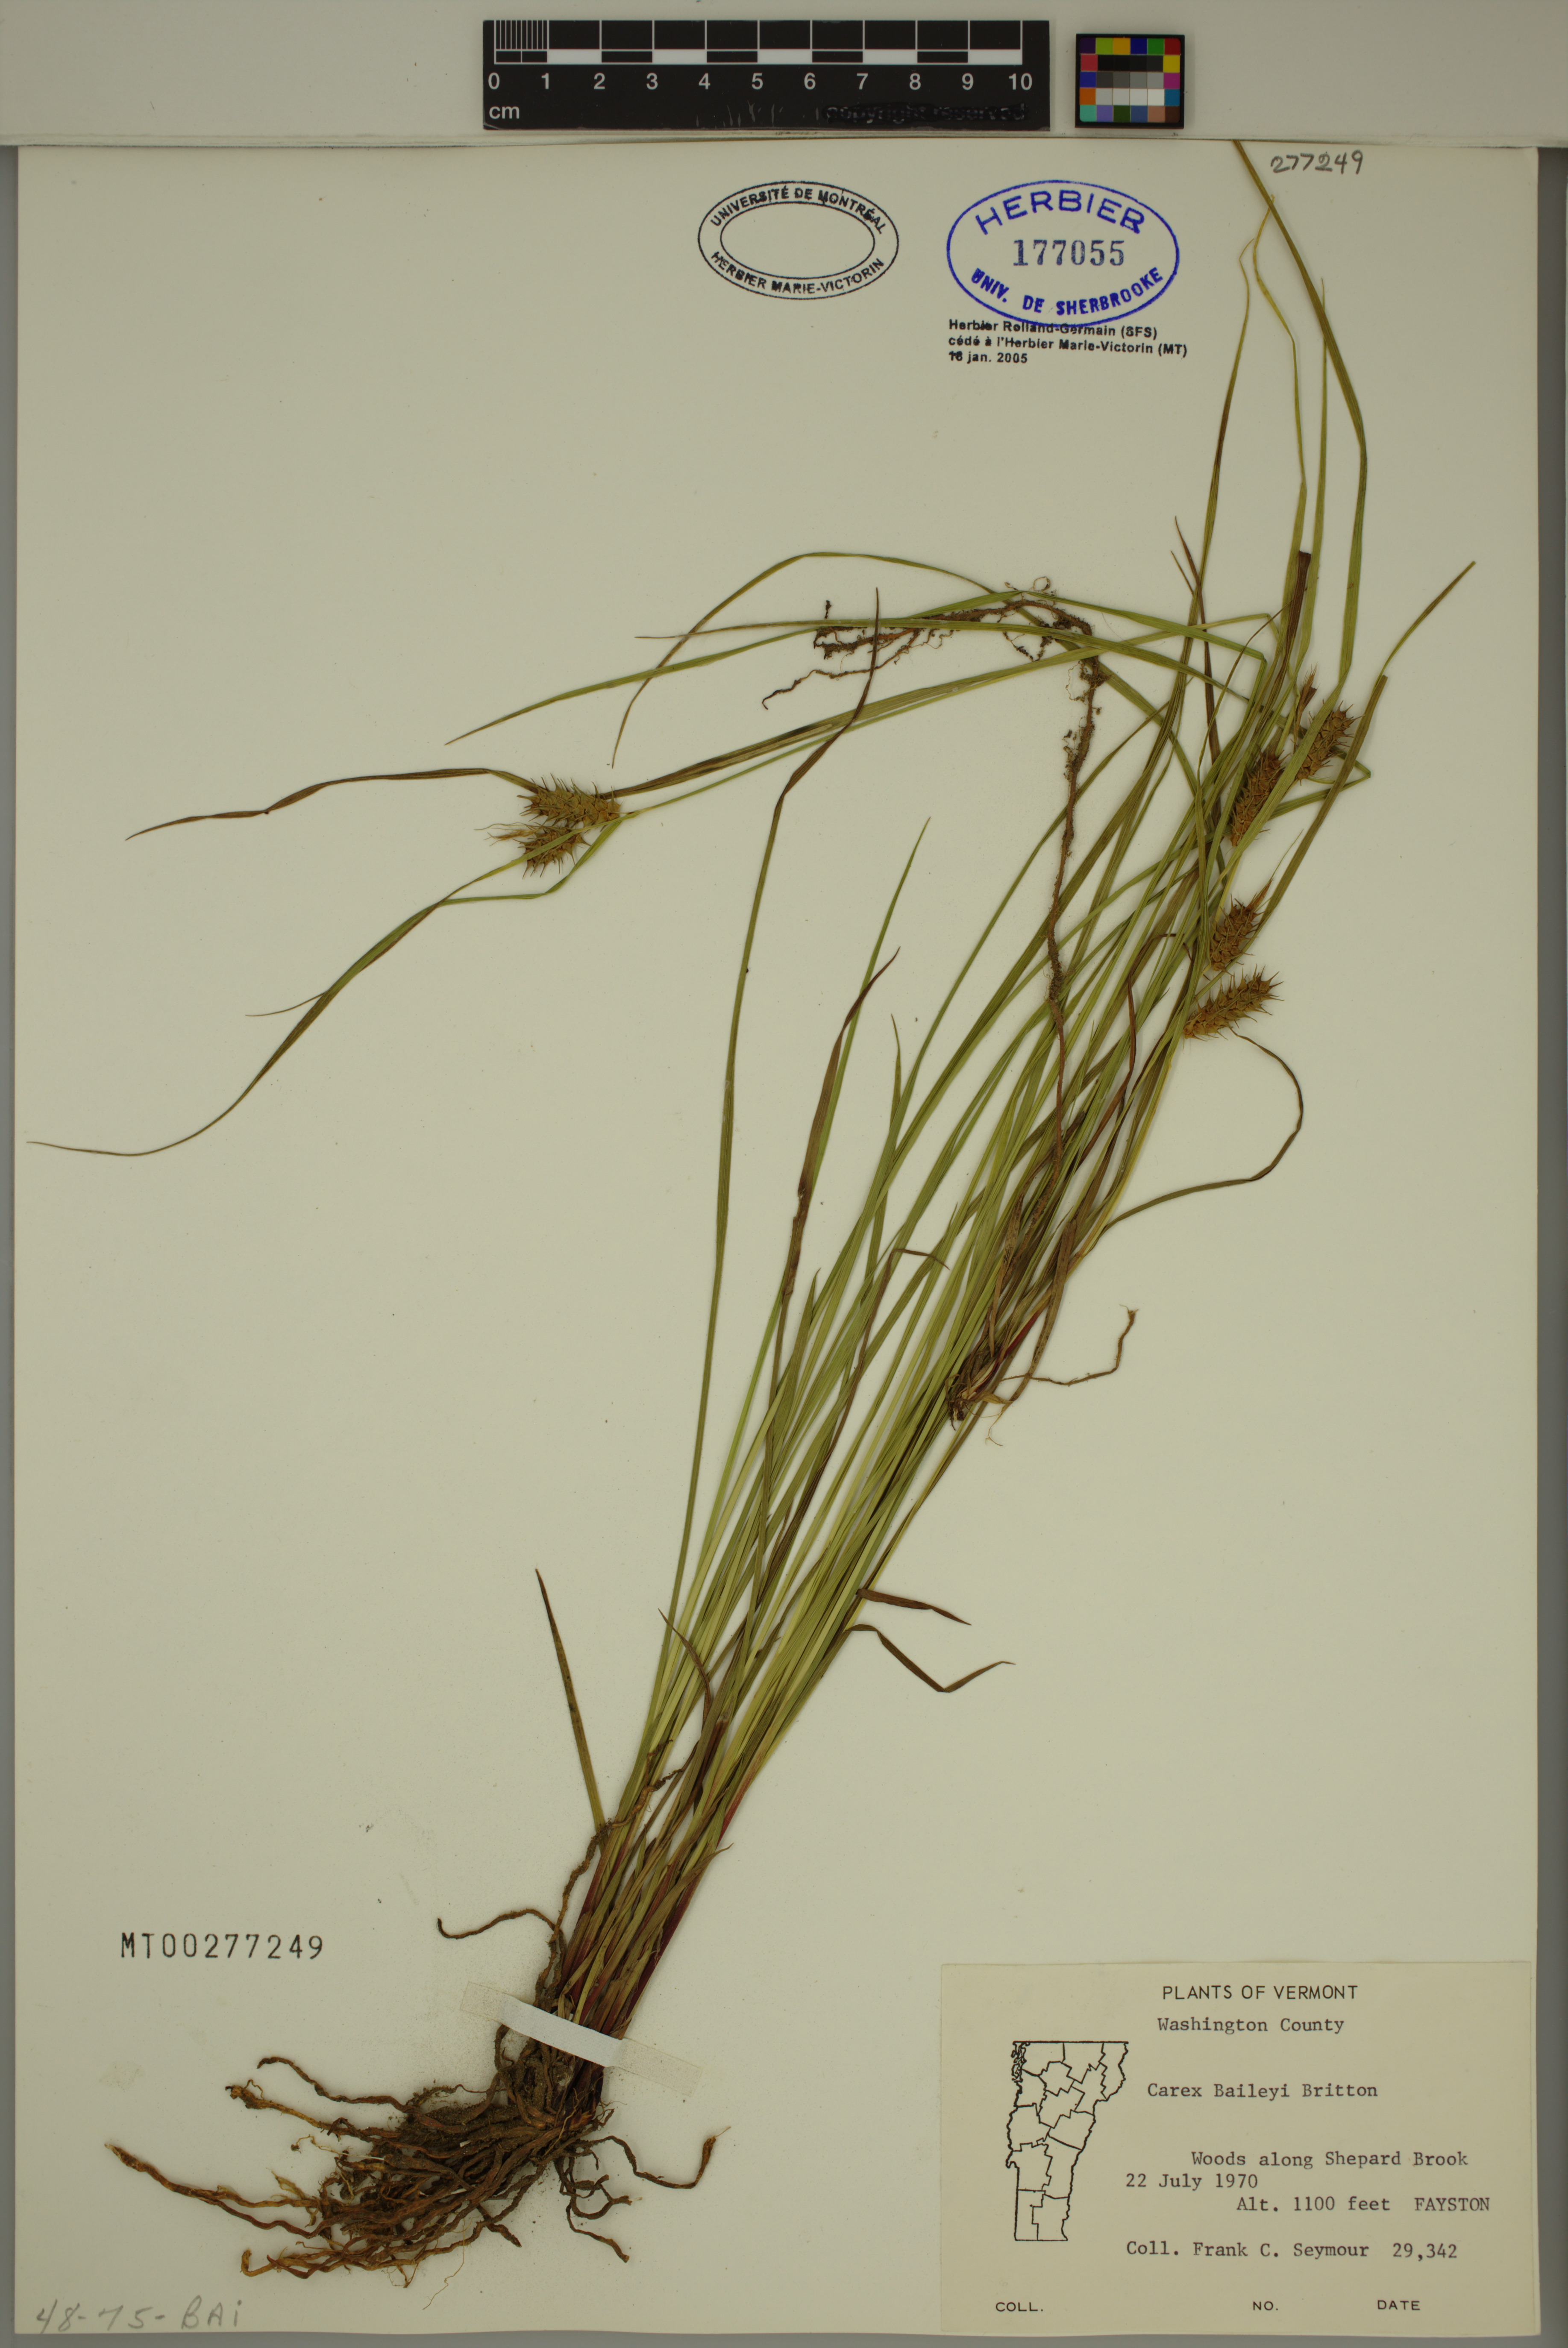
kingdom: Plantae
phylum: Tracheophyta
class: Liliopsida
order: Poales
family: Cyperaceae
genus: Carex
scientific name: Carex baileyi
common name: Bailey's sedge
